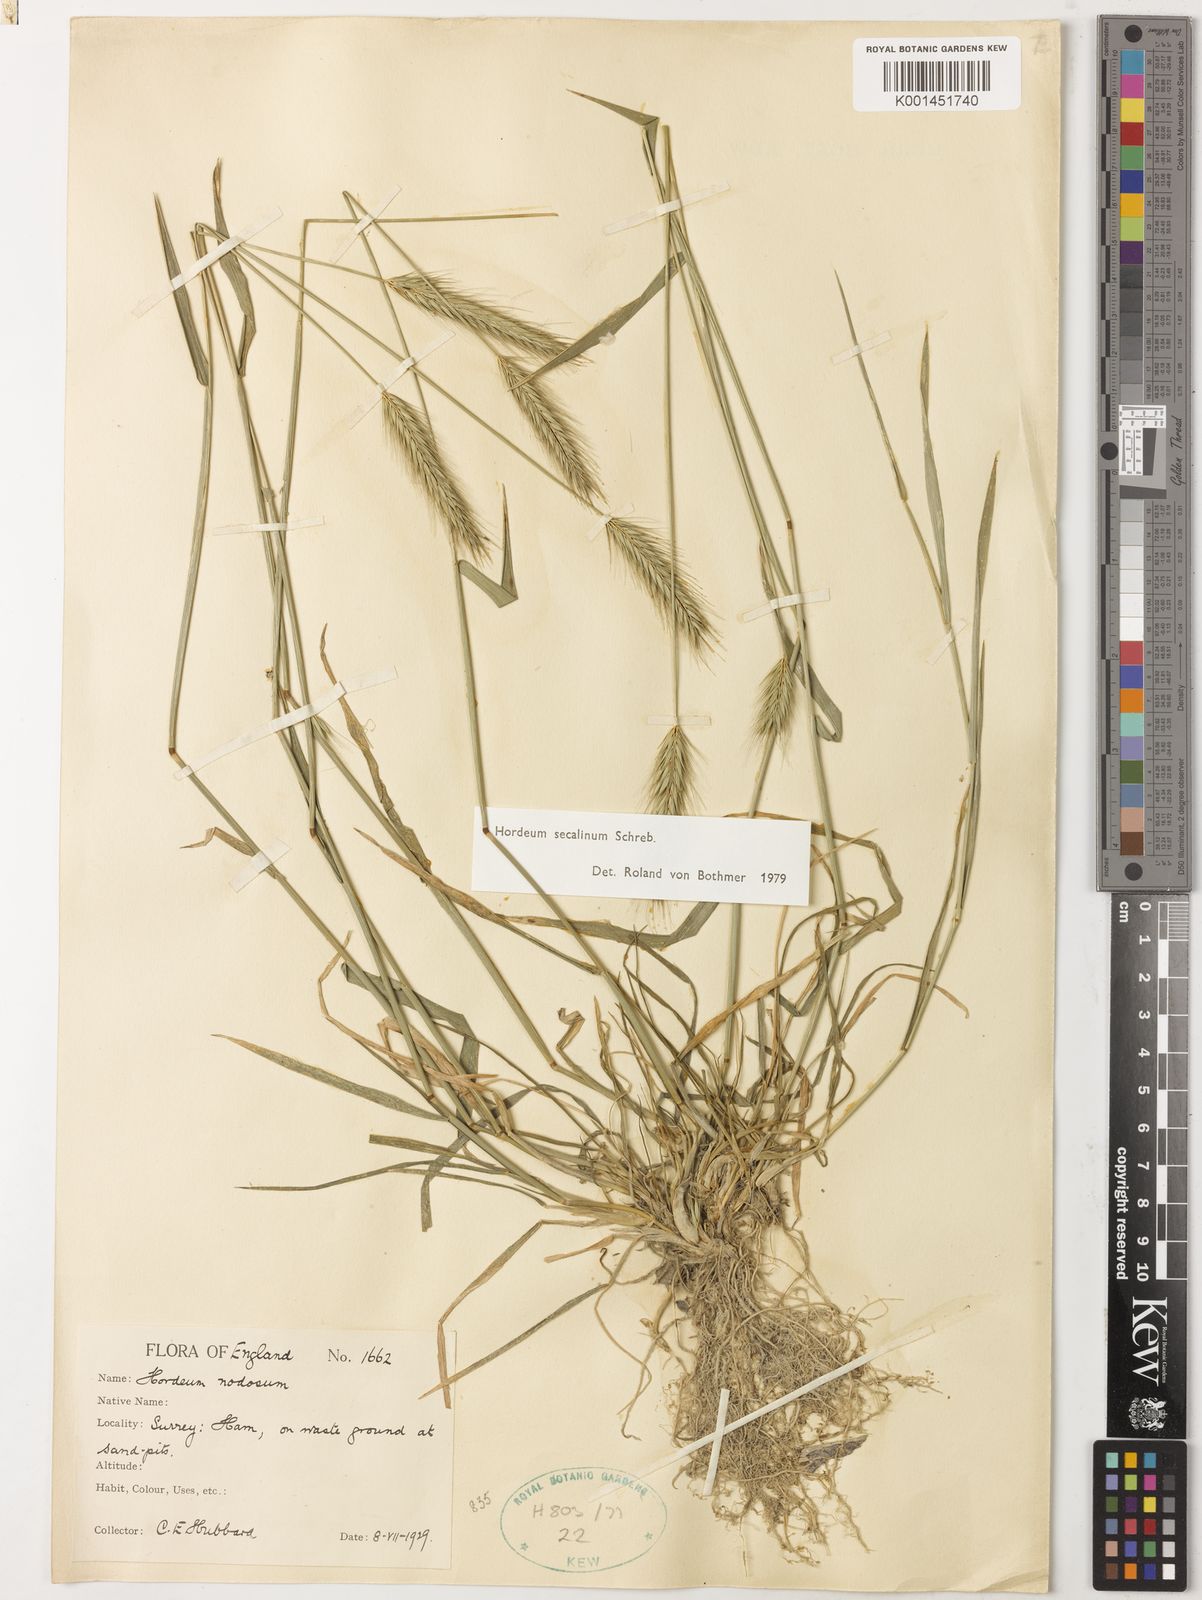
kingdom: Plantae
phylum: Tracheophyta
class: Liliopsida
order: Poales
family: Poaceae
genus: Hordeum
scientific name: Hordeum secalinum
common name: Meadow barley
